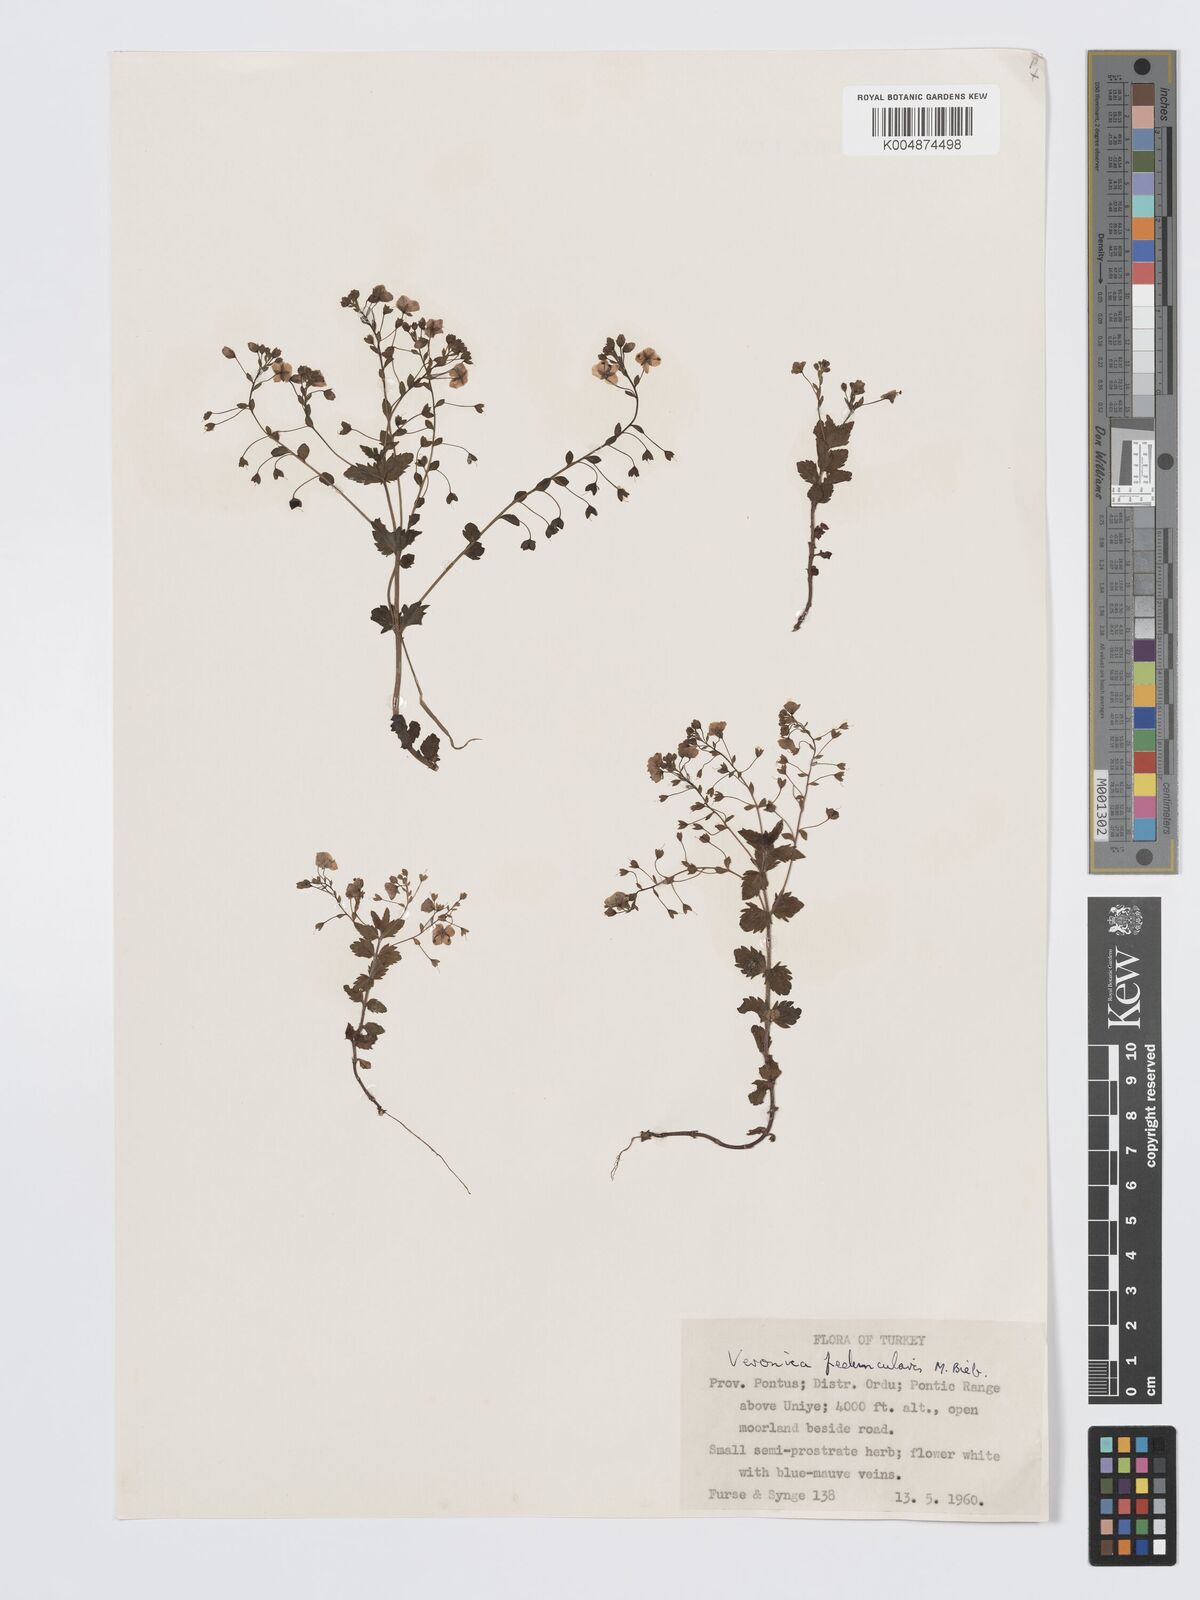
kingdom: Plantae
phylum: Tracheophyta
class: Magnoliopsida
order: Lamiales
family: Plantaginaceae
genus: Veronica
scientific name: Veronica
